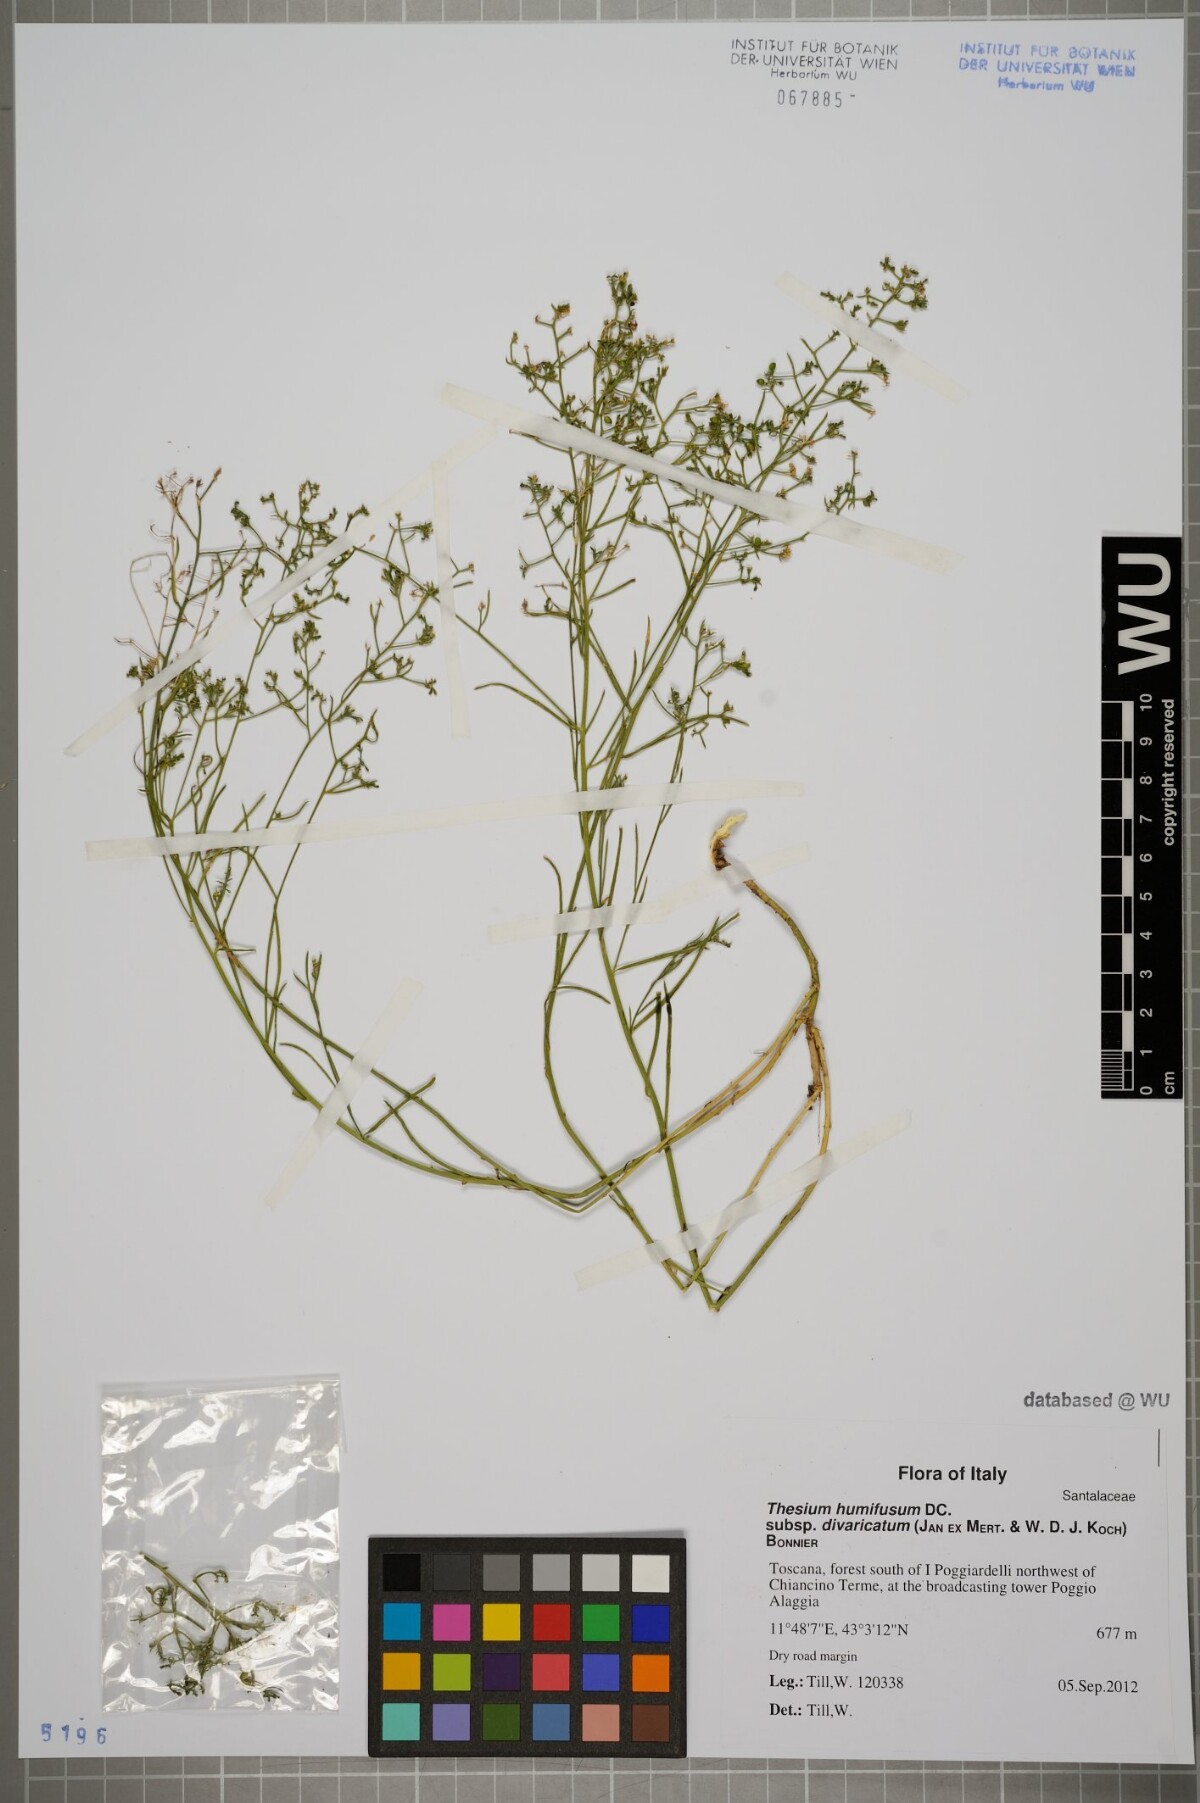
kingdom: Plantae
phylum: Tracheophyta
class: Magnoliopsida
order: Santalales
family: Thesiaceae
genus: Thesium
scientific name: Thesium divaricatum
